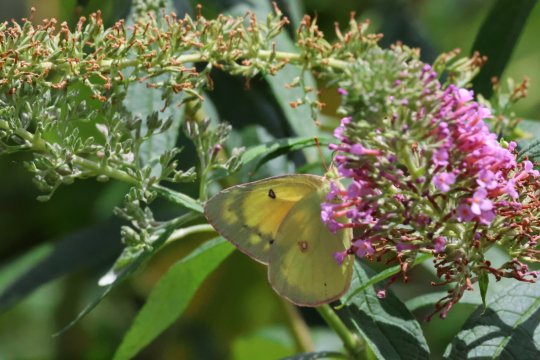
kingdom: Animalia
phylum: Arthropoda
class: Insecta
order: Lepidoptera
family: Pieridae
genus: Colias
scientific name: Colias eurytheme
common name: Orange Sulphur
